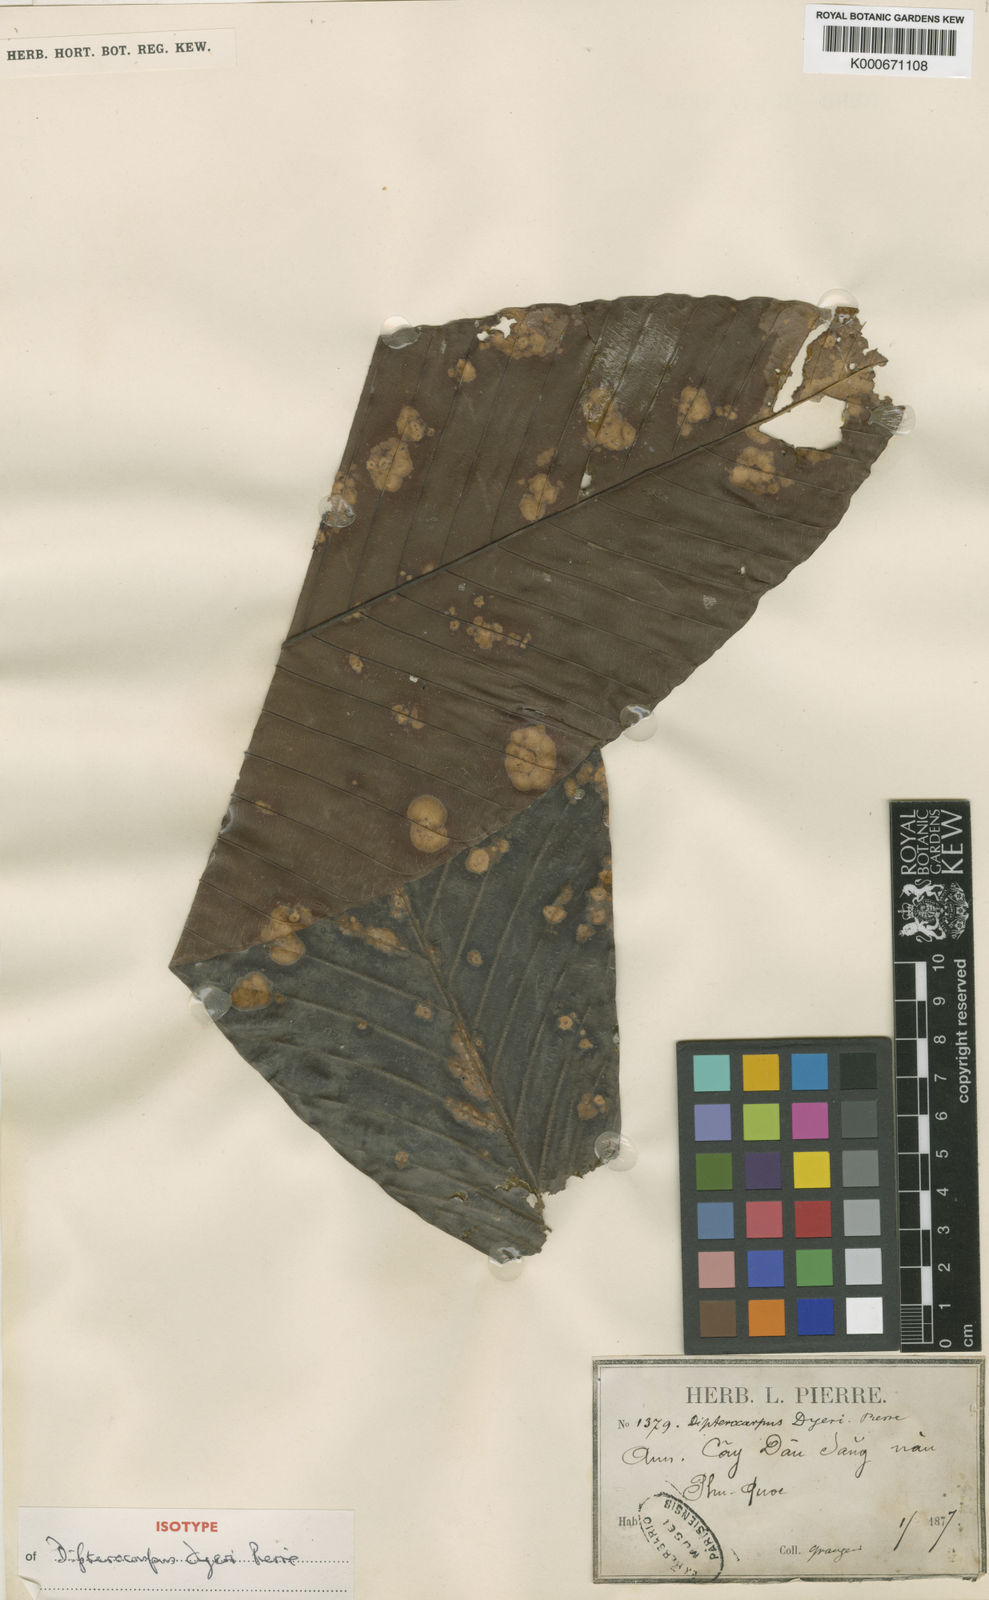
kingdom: Plantae
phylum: Tracheophyta
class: Magnoliopsida
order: Malvales
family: Dipterocarpaceae
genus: Dipterocarpus
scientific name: Dipterocarpus
